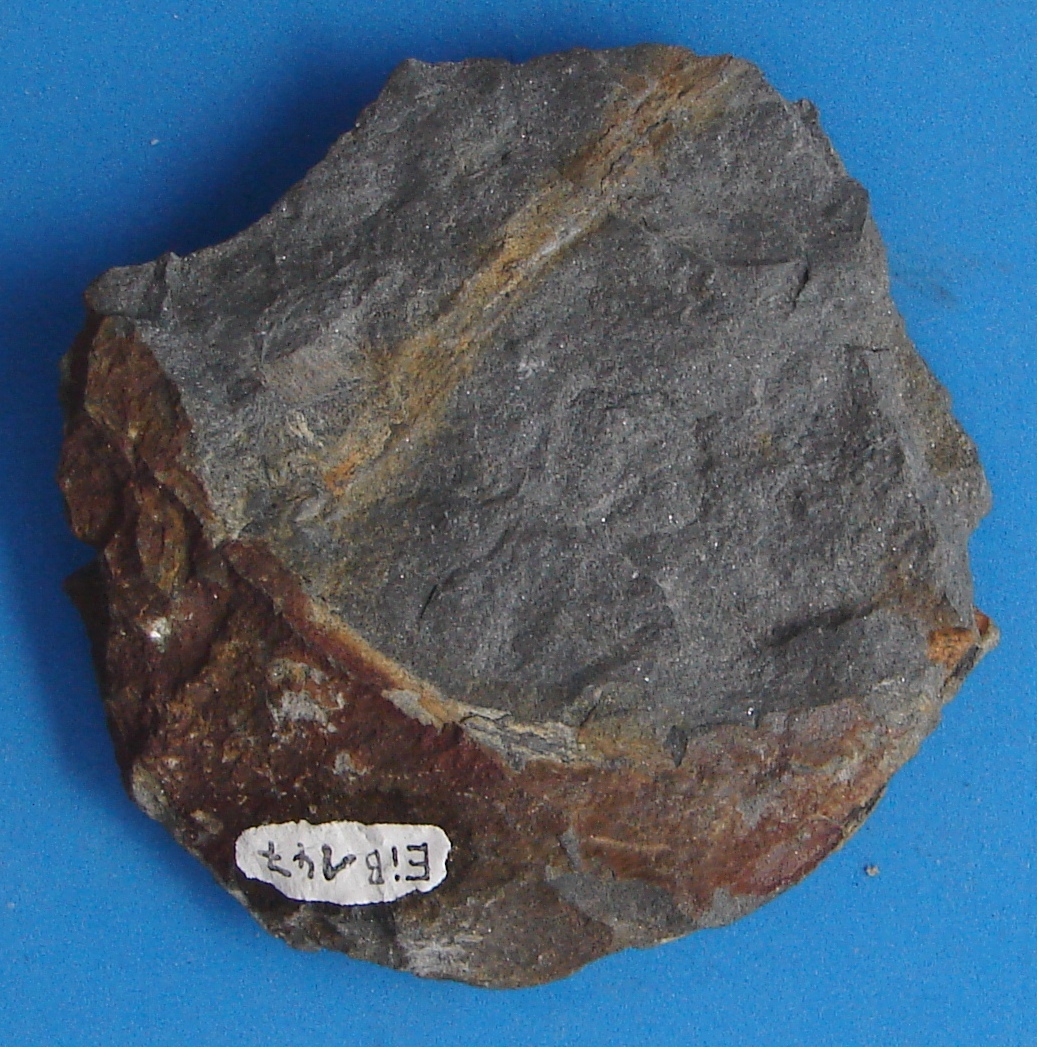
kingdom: Animalia
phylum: Arthropoda
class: Merostomata
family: Adelophthalmidae
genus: Parahughmilleria
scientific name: Parahughmilleria
